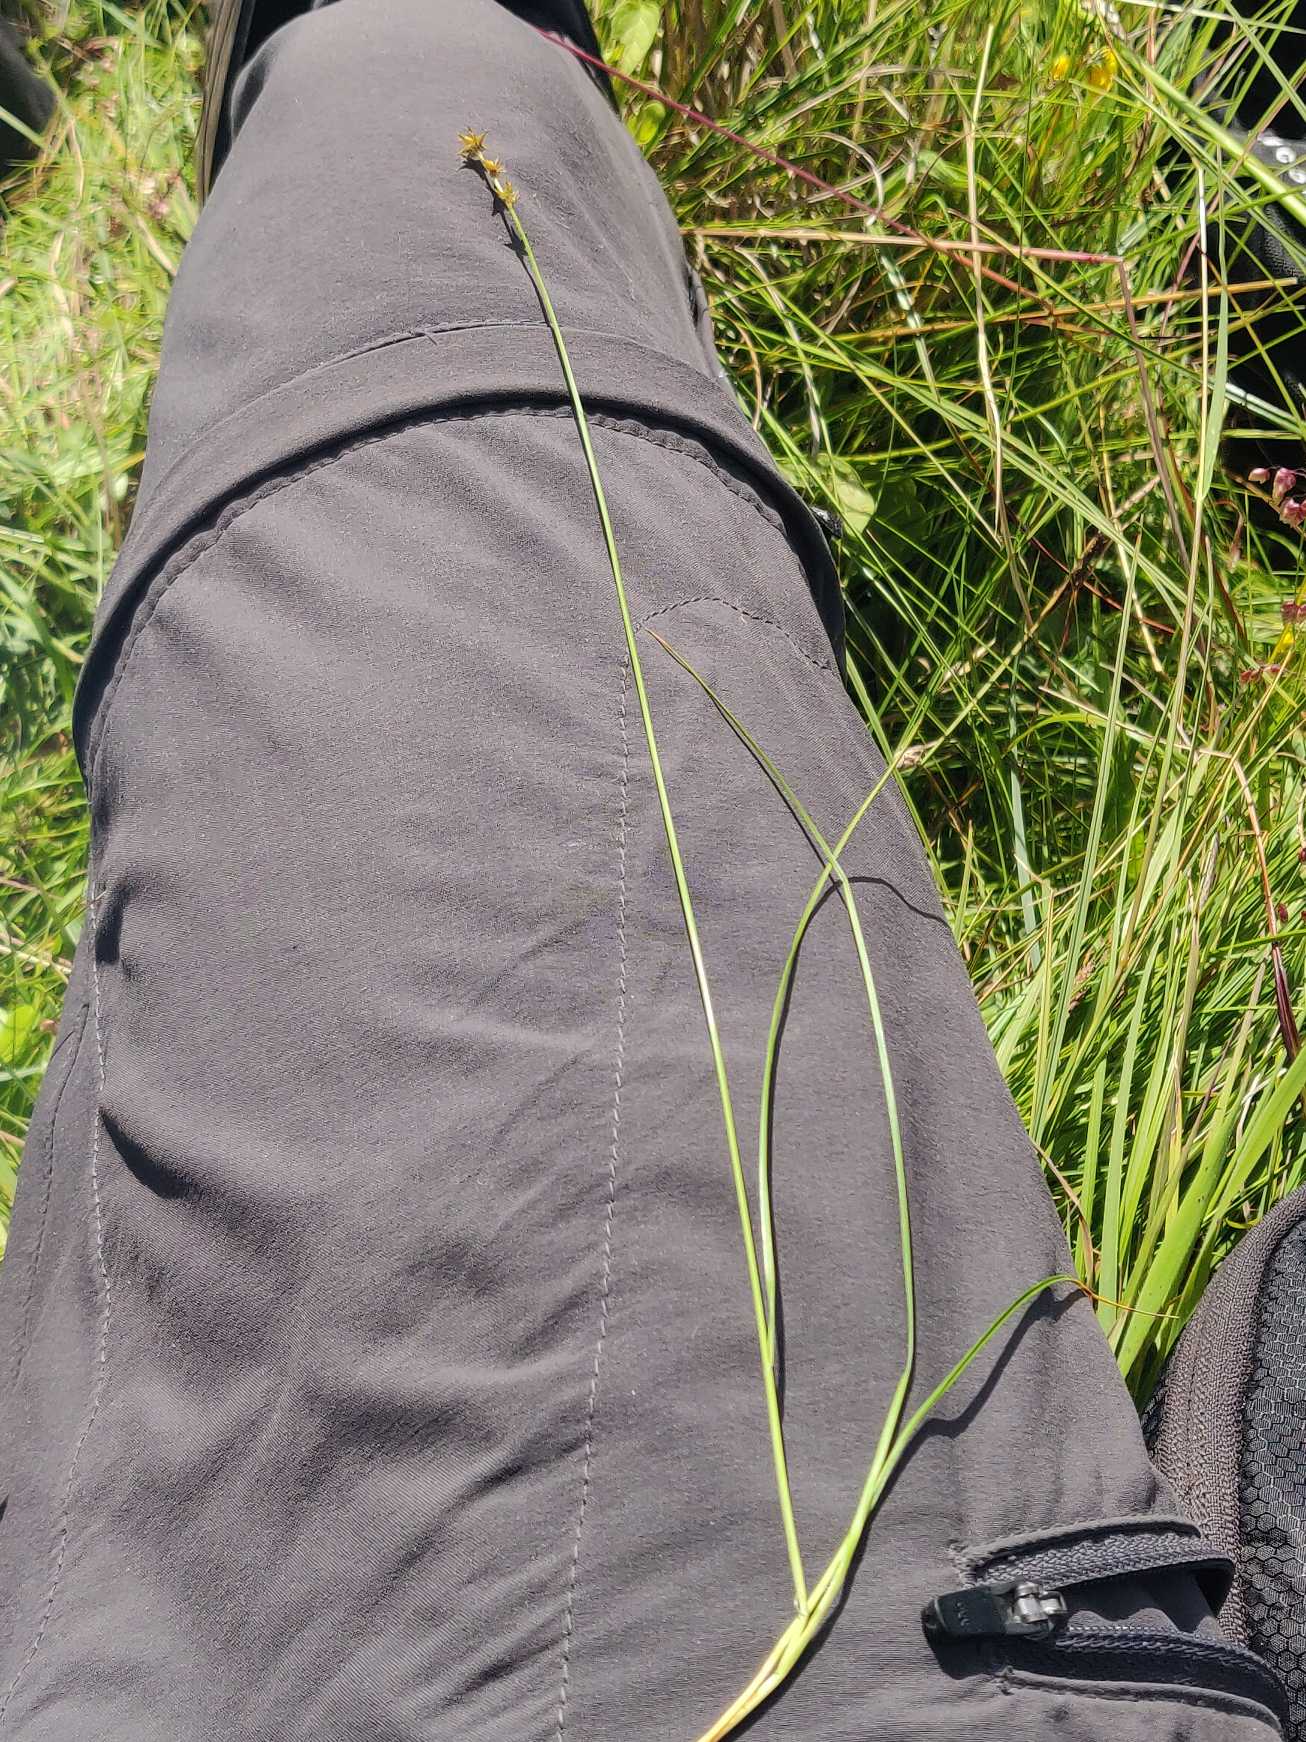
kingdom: Plantae
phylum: Tracheophyta
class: Liliopsida
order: Poales
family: Cyperaceae
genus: Carex
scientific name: Carex echinata
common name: Stjerne-star
